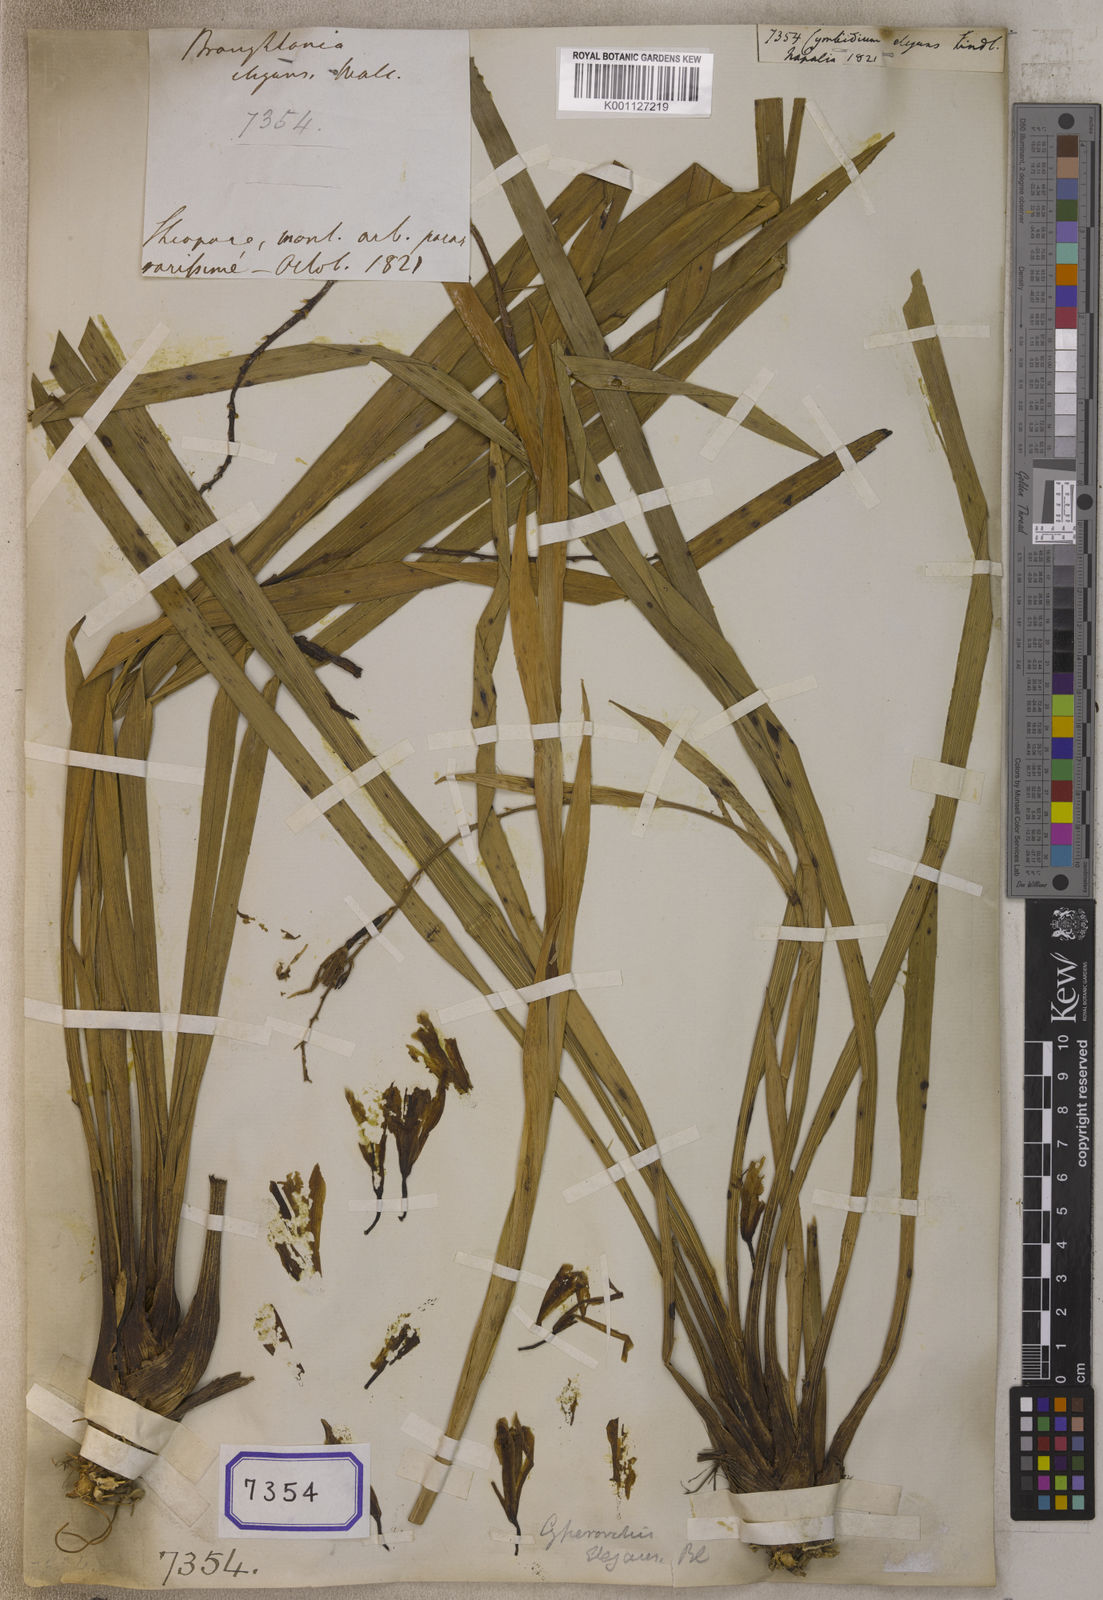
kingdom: Plantae
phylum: Tracheophyta
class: Liliopsida
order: Asparagales
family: Orchidaceae
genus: Cymbidium
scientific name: Cymbidium elegans
